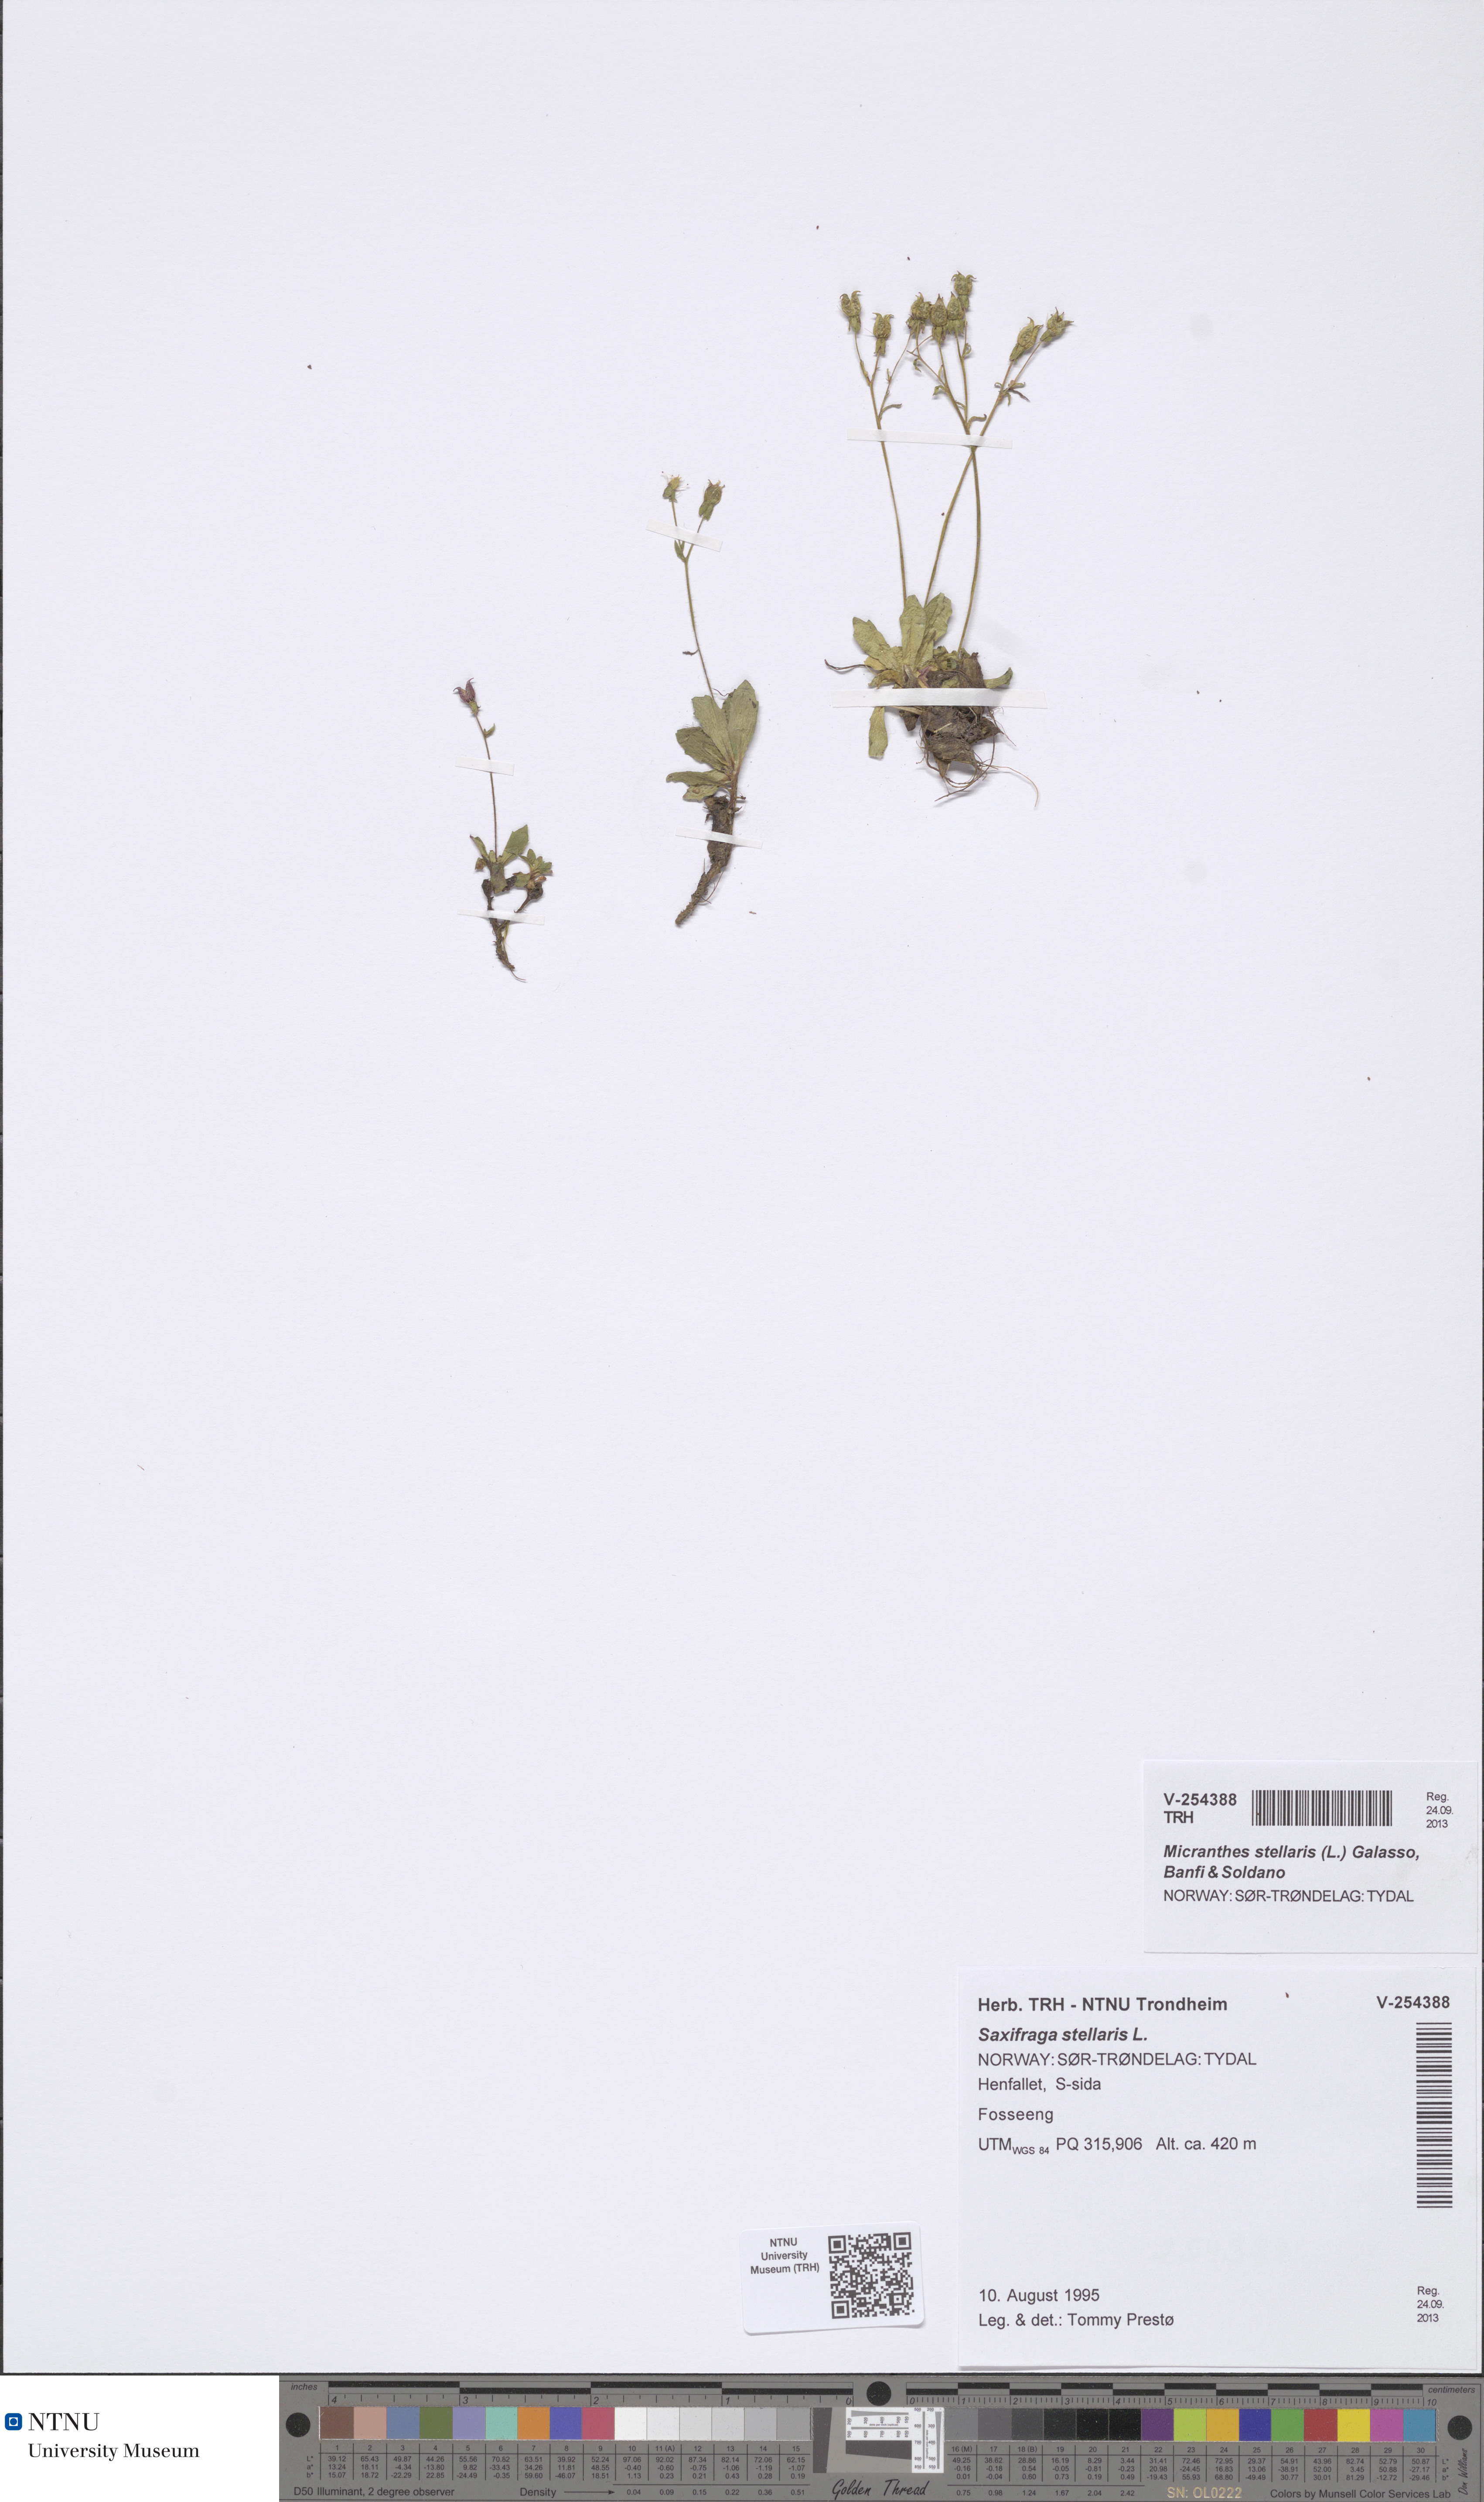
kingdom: Plantae
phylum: Tracheophyta
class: Magnoliopsida
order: Saxifragales
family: Saxifragaceae
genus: Micranthes
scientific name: Micranthes stellaris
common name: Starry saxifrage
